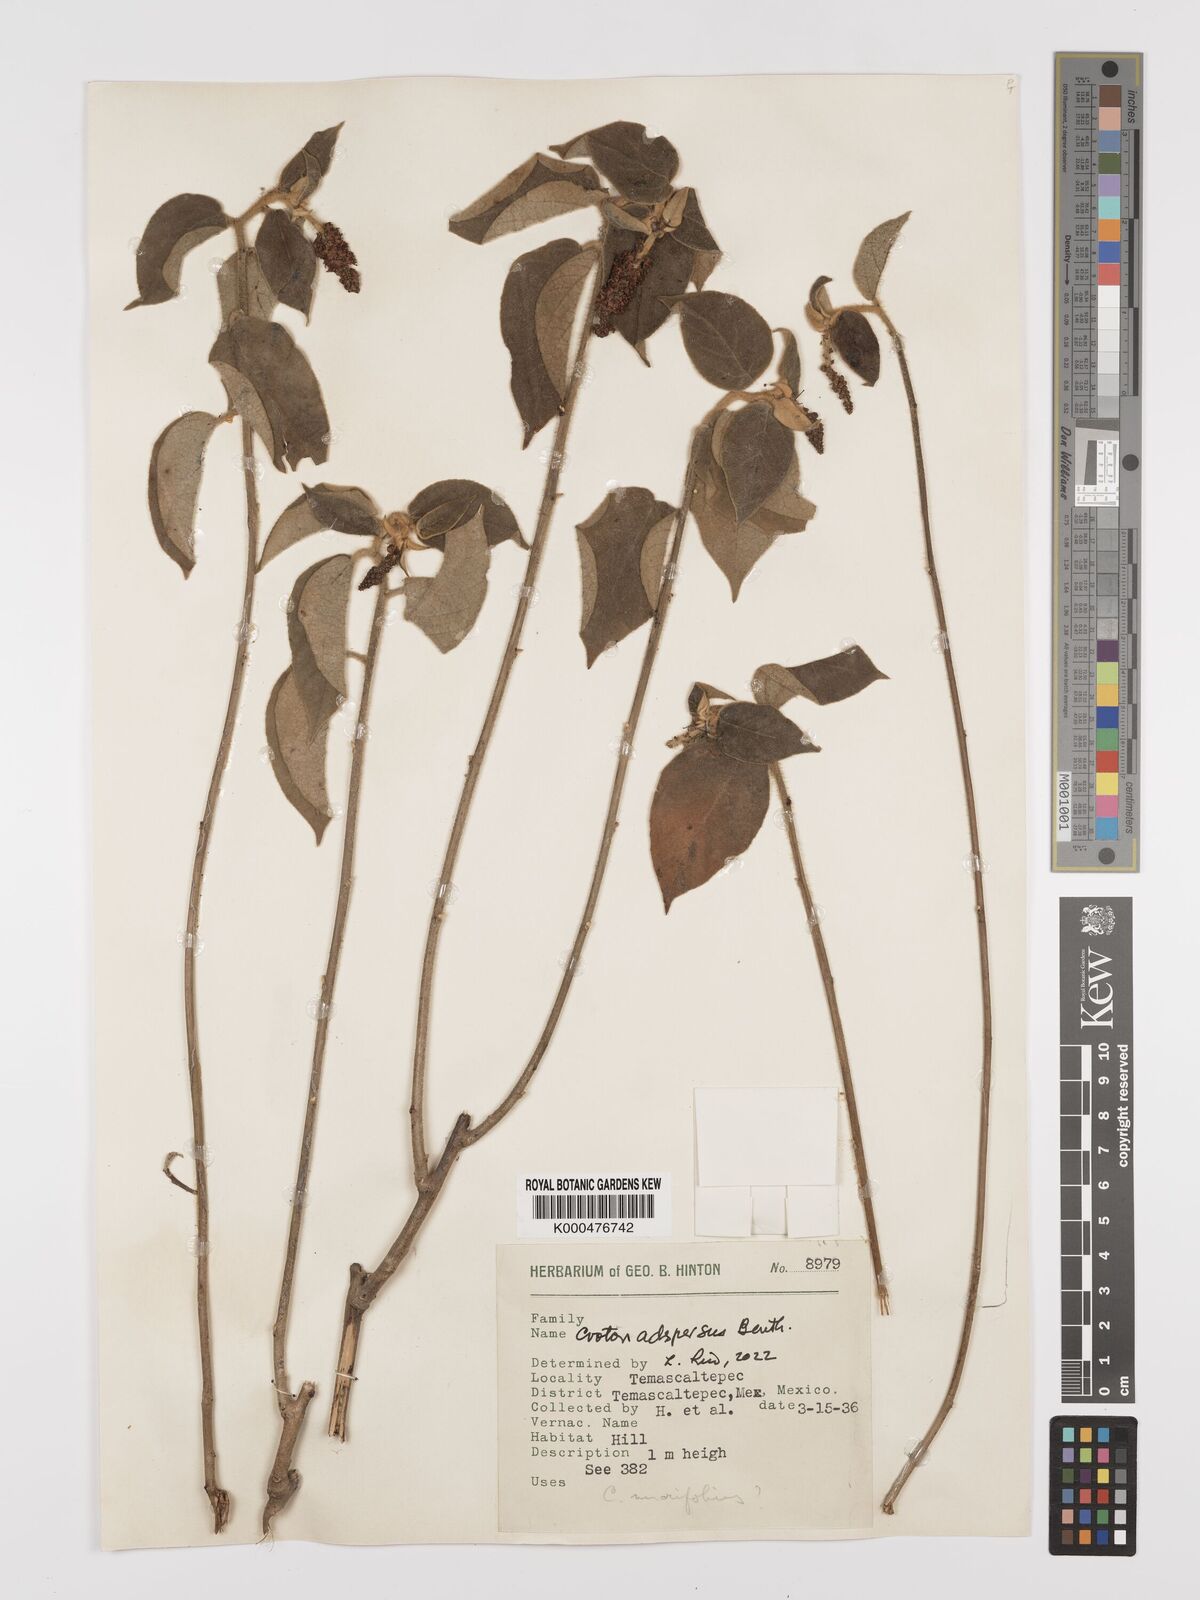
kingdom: Plantae
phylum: Tracheophyta
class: Magnoliopsida
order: Malpighiales
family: Euphorbiaceae
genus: Croton
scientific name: Croton adspersus
